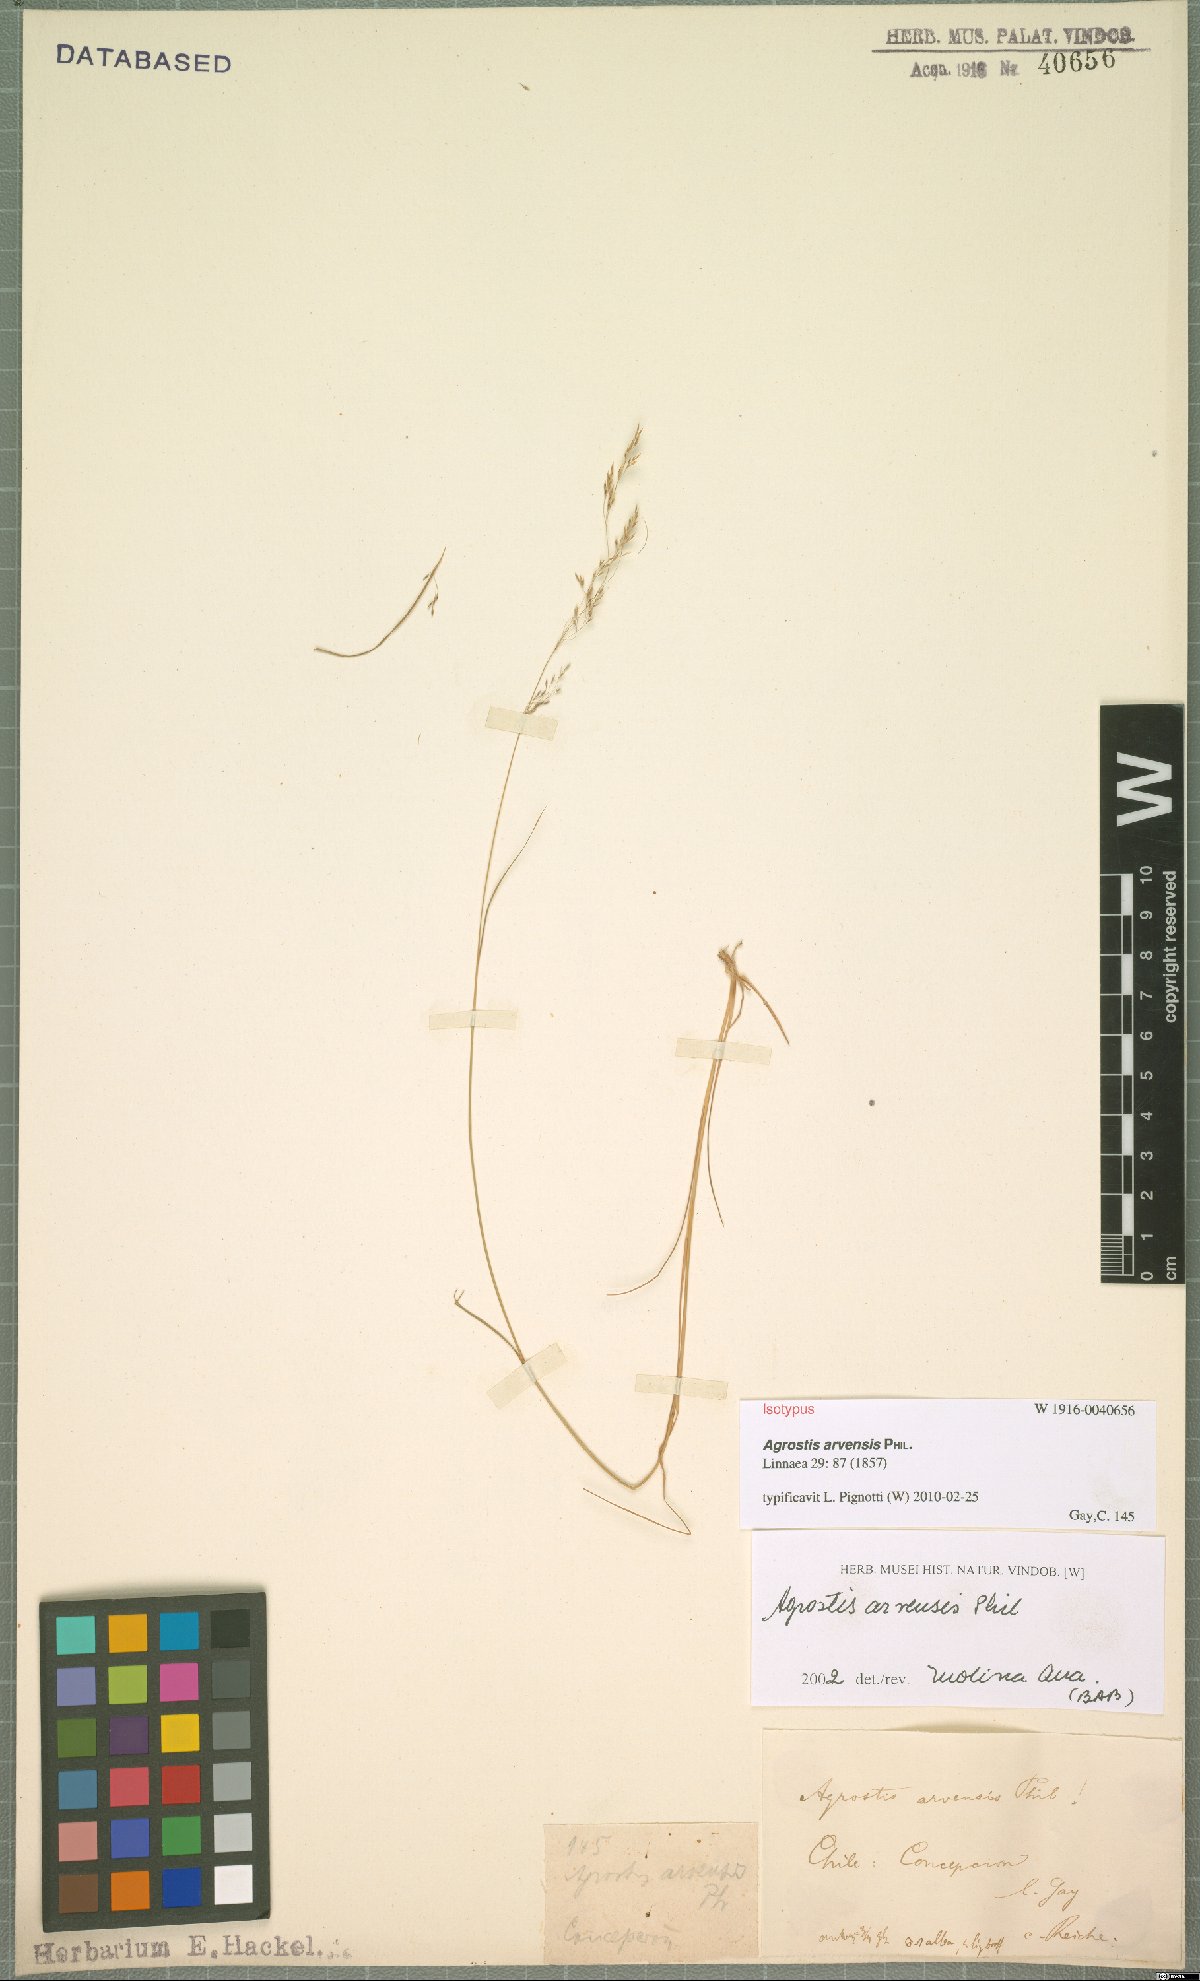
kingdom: Plantae
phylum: Tracheophyta
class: Liliopsida
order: Poales
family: Poaceae
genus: Agrostis
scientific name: Agrostis arvensis
